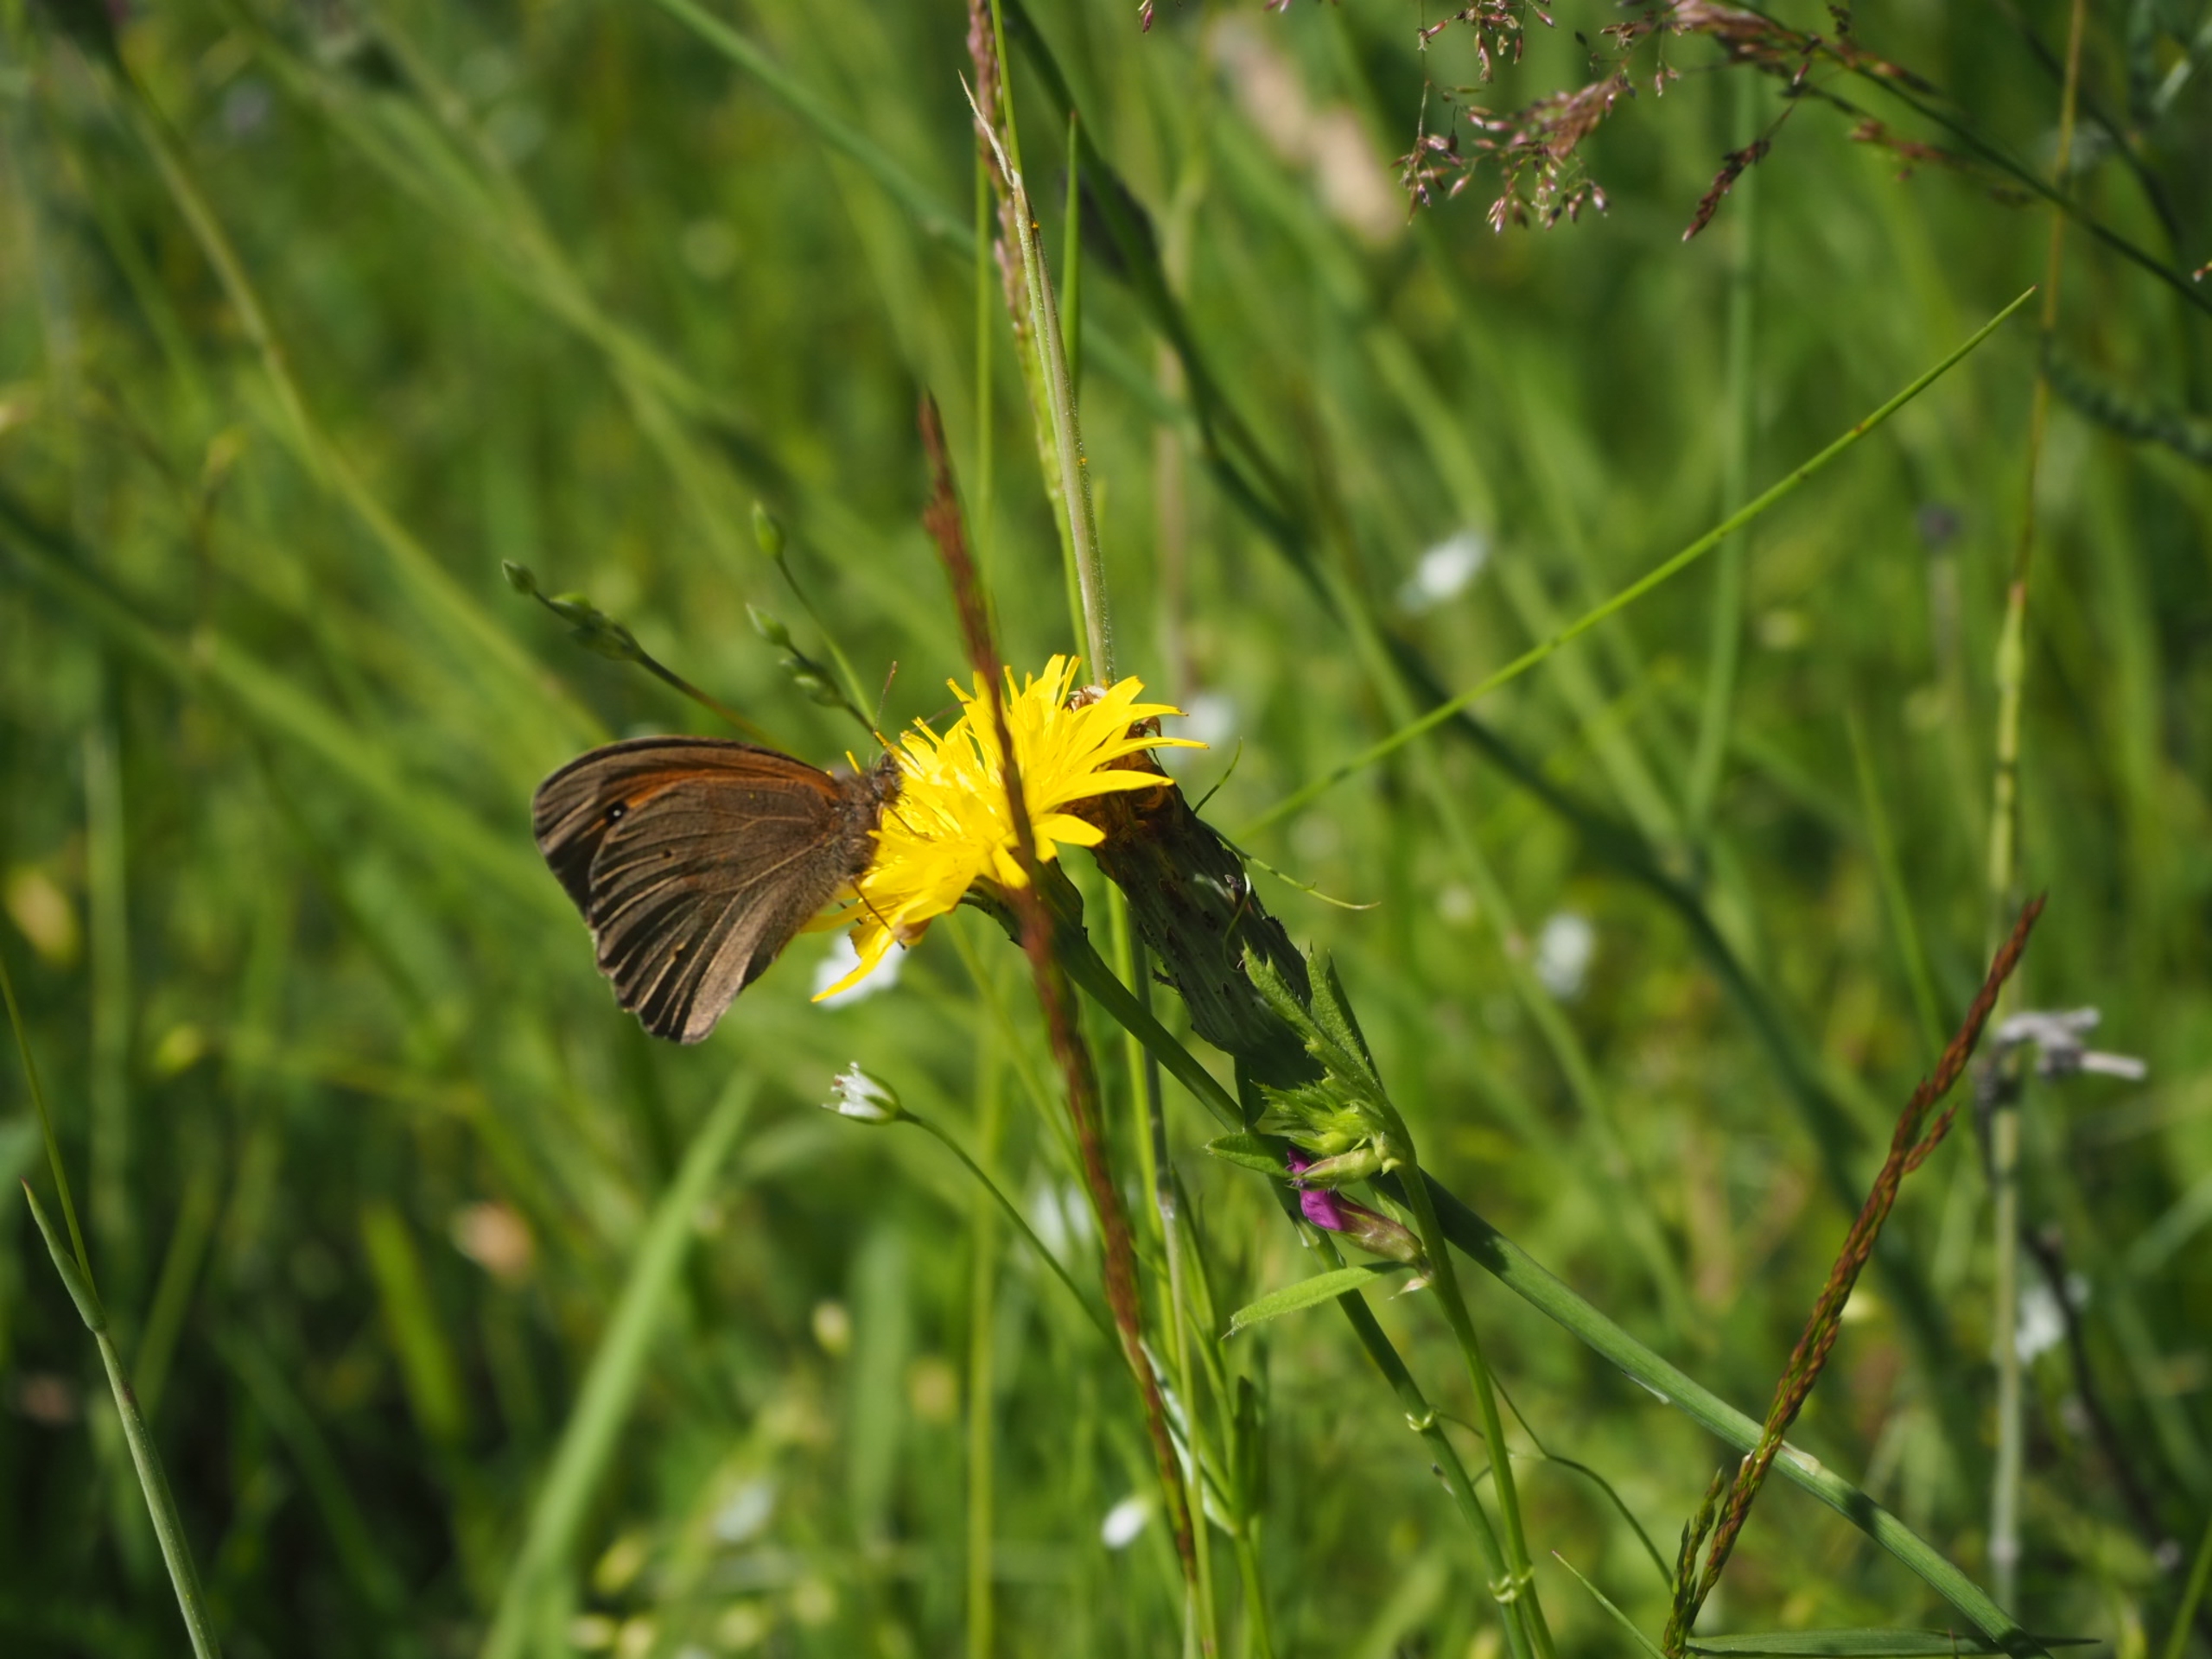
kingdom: Animalia
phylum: Arthropoda
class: Insecta
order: Lepidoptera
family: Nymphalidae
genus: Maniola
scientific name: Maniola jurtina
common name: Græsrandøje
